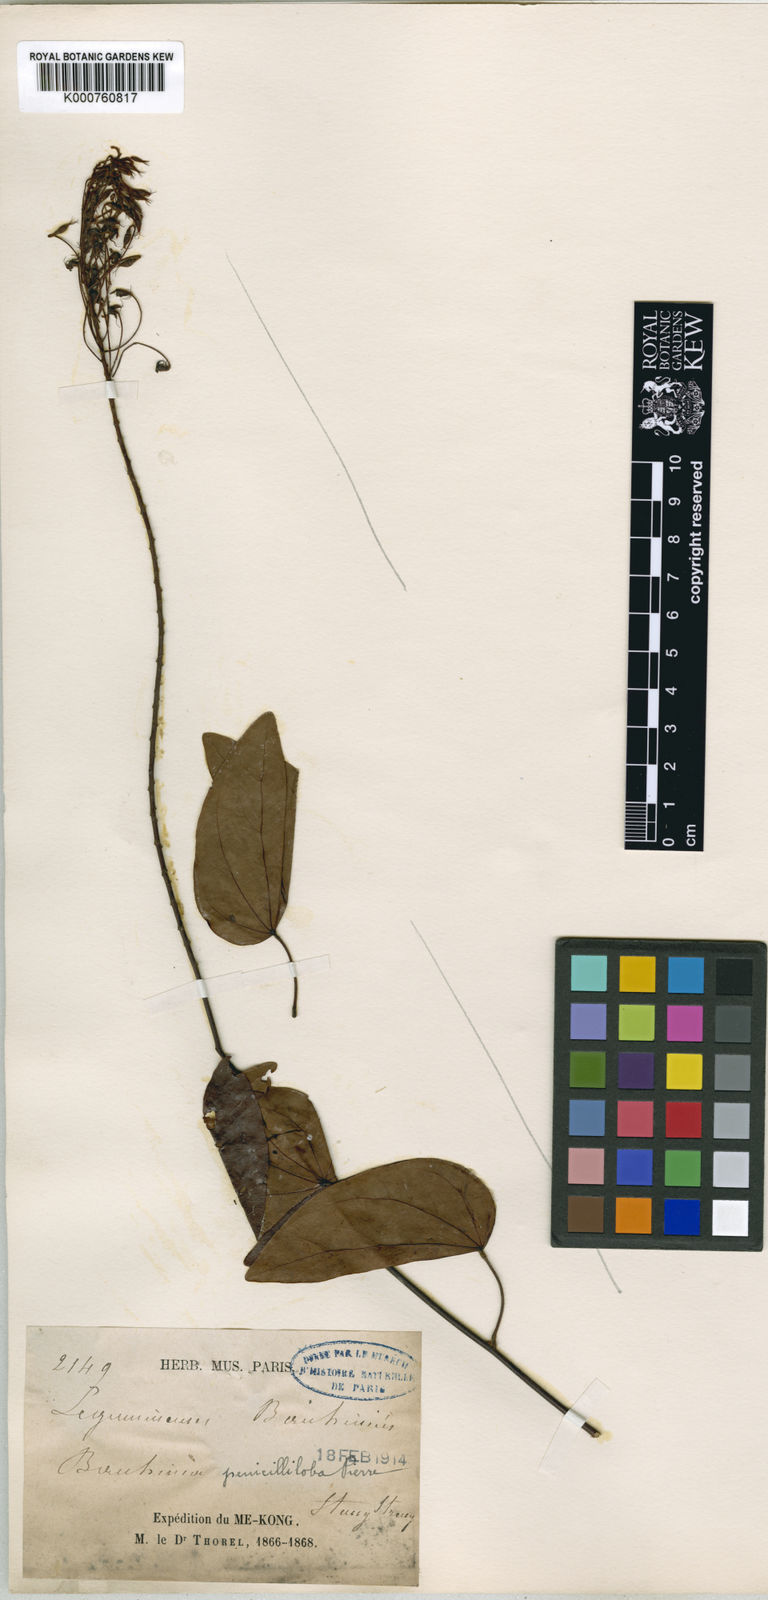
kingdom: Plantae
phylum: Tracheophyta
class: Magnoliopsida
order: Fabales
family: Fabaceae
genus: Phanera
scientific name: Phanera penicilliloba
